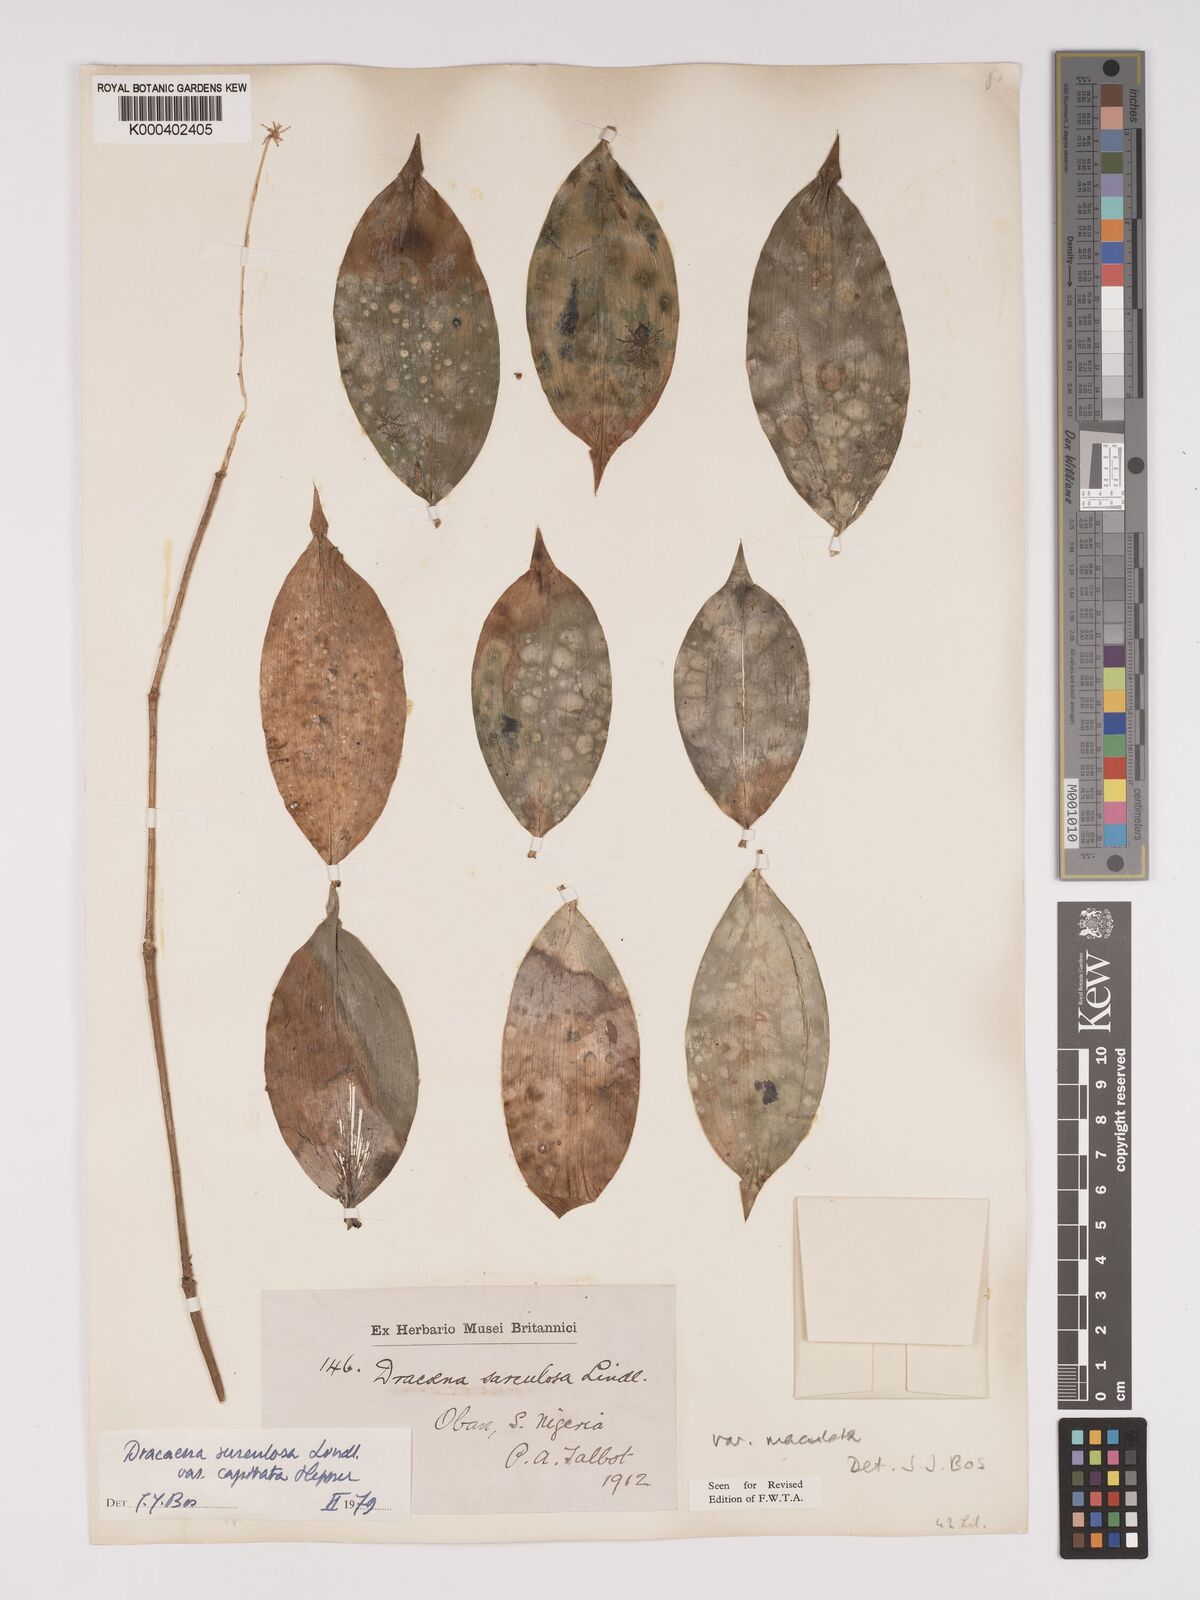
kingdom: Plantae
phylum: Tracheophyta
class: Liliopsida
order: Asparagales
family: Asparagaceae
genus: Dracaena
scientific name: Dracaena surculosa
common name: Spotted dracaena
